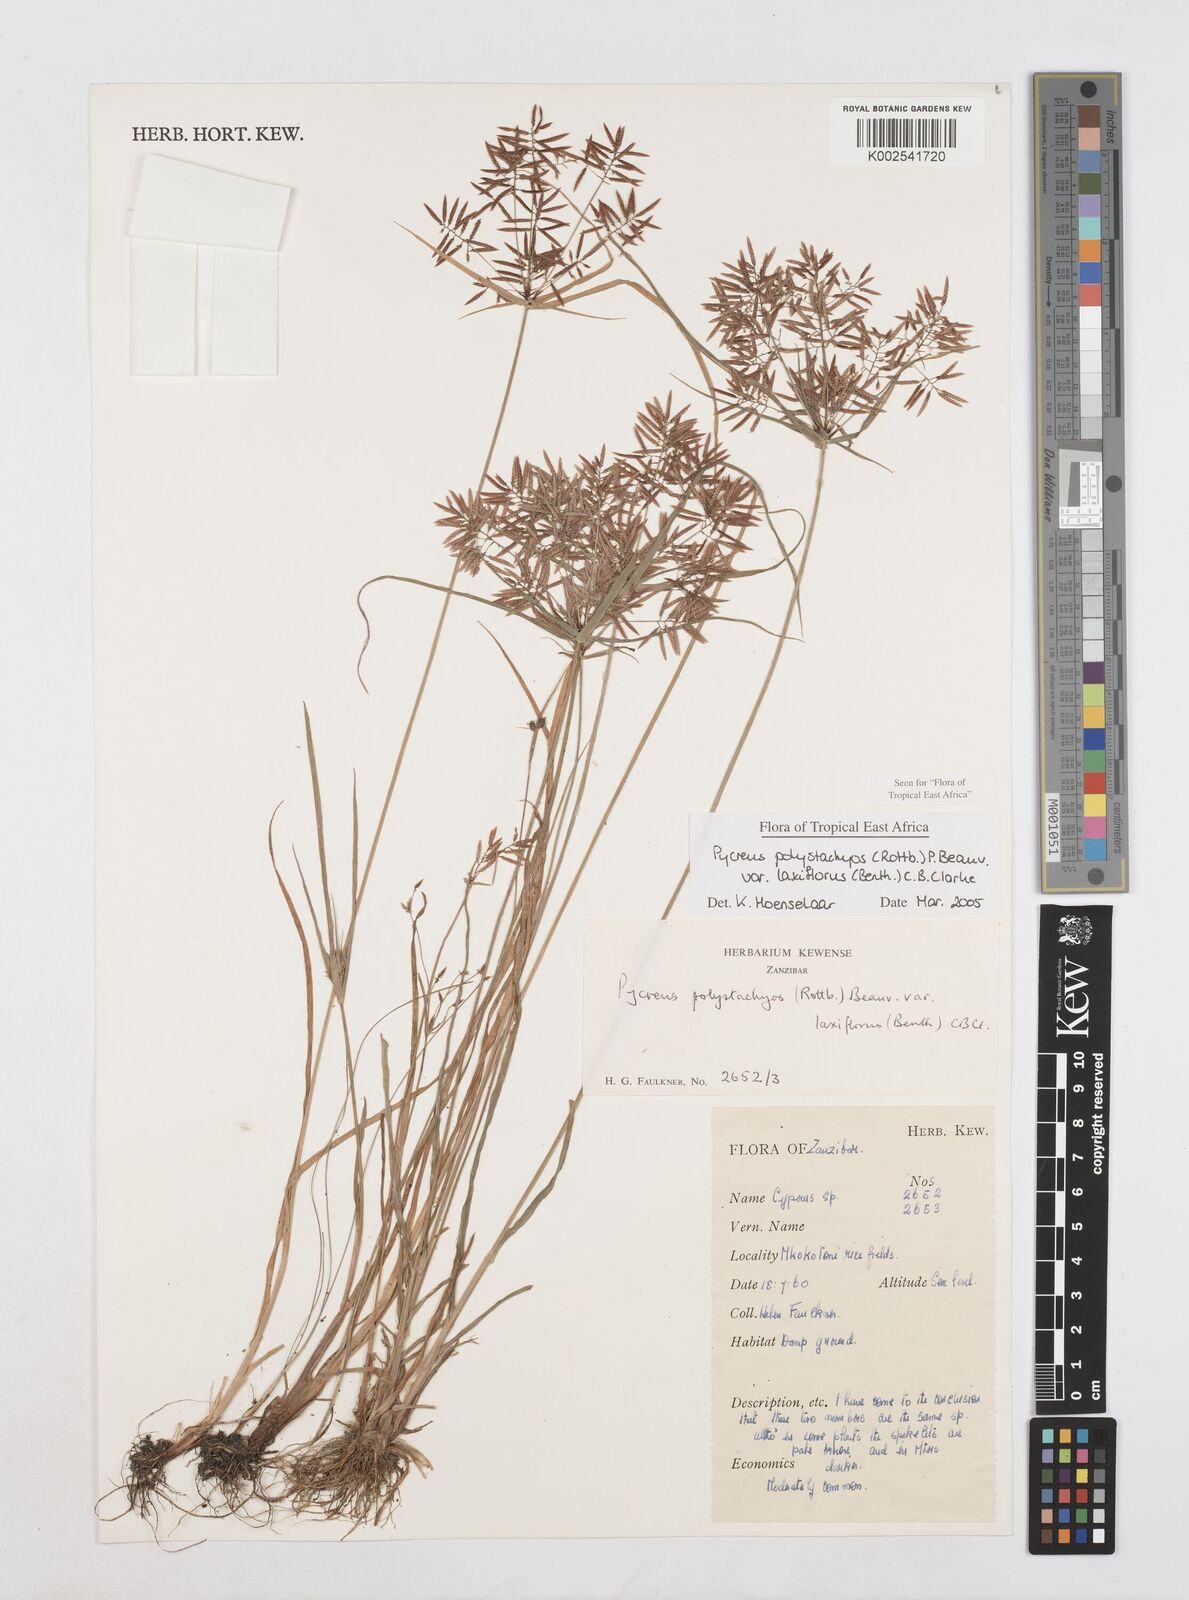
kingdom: Plantae
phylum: Tracheophyta
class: Liliopsida
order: Poales
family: Cyperaceae
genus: Cyperus
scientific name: Cyperus polystachyos
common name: Bunchy flat sedge
